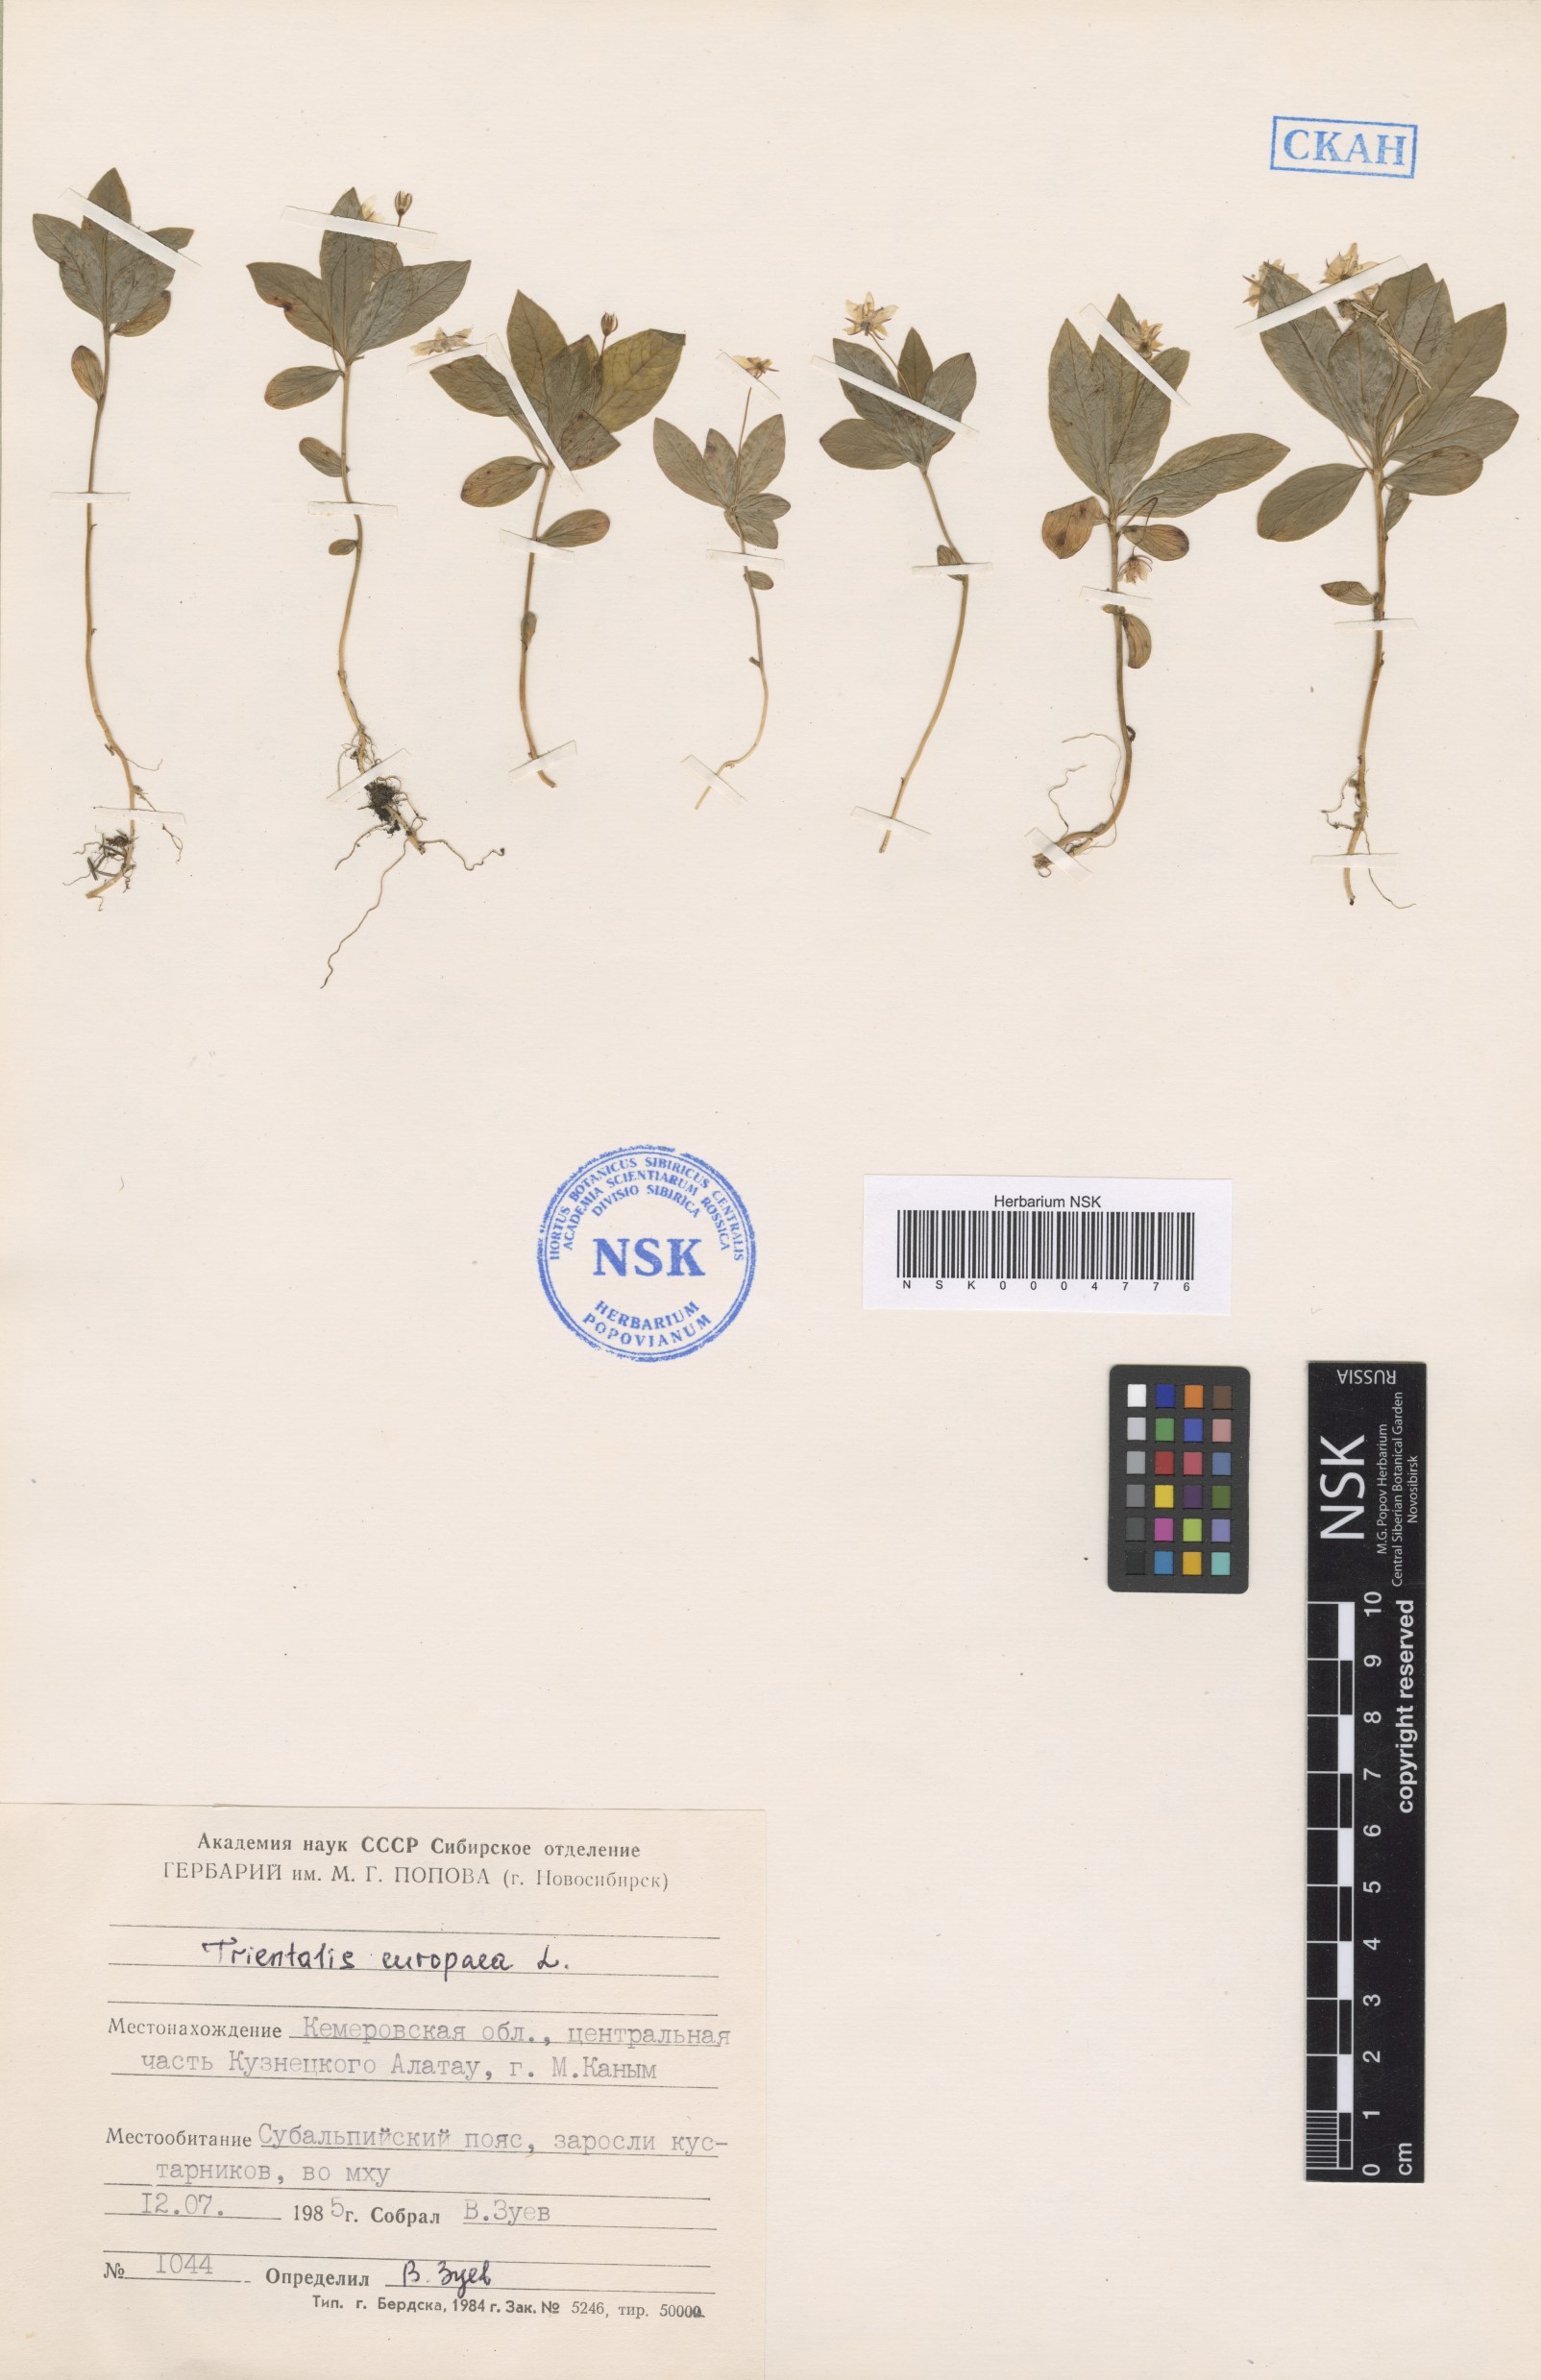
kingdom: Plantae
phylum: Tracheophyta
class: Magnoliopsida
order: Ericales
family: Primulaceae
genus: Lysimachia
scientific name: Lysimachia europaea
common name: Arctic starflower
